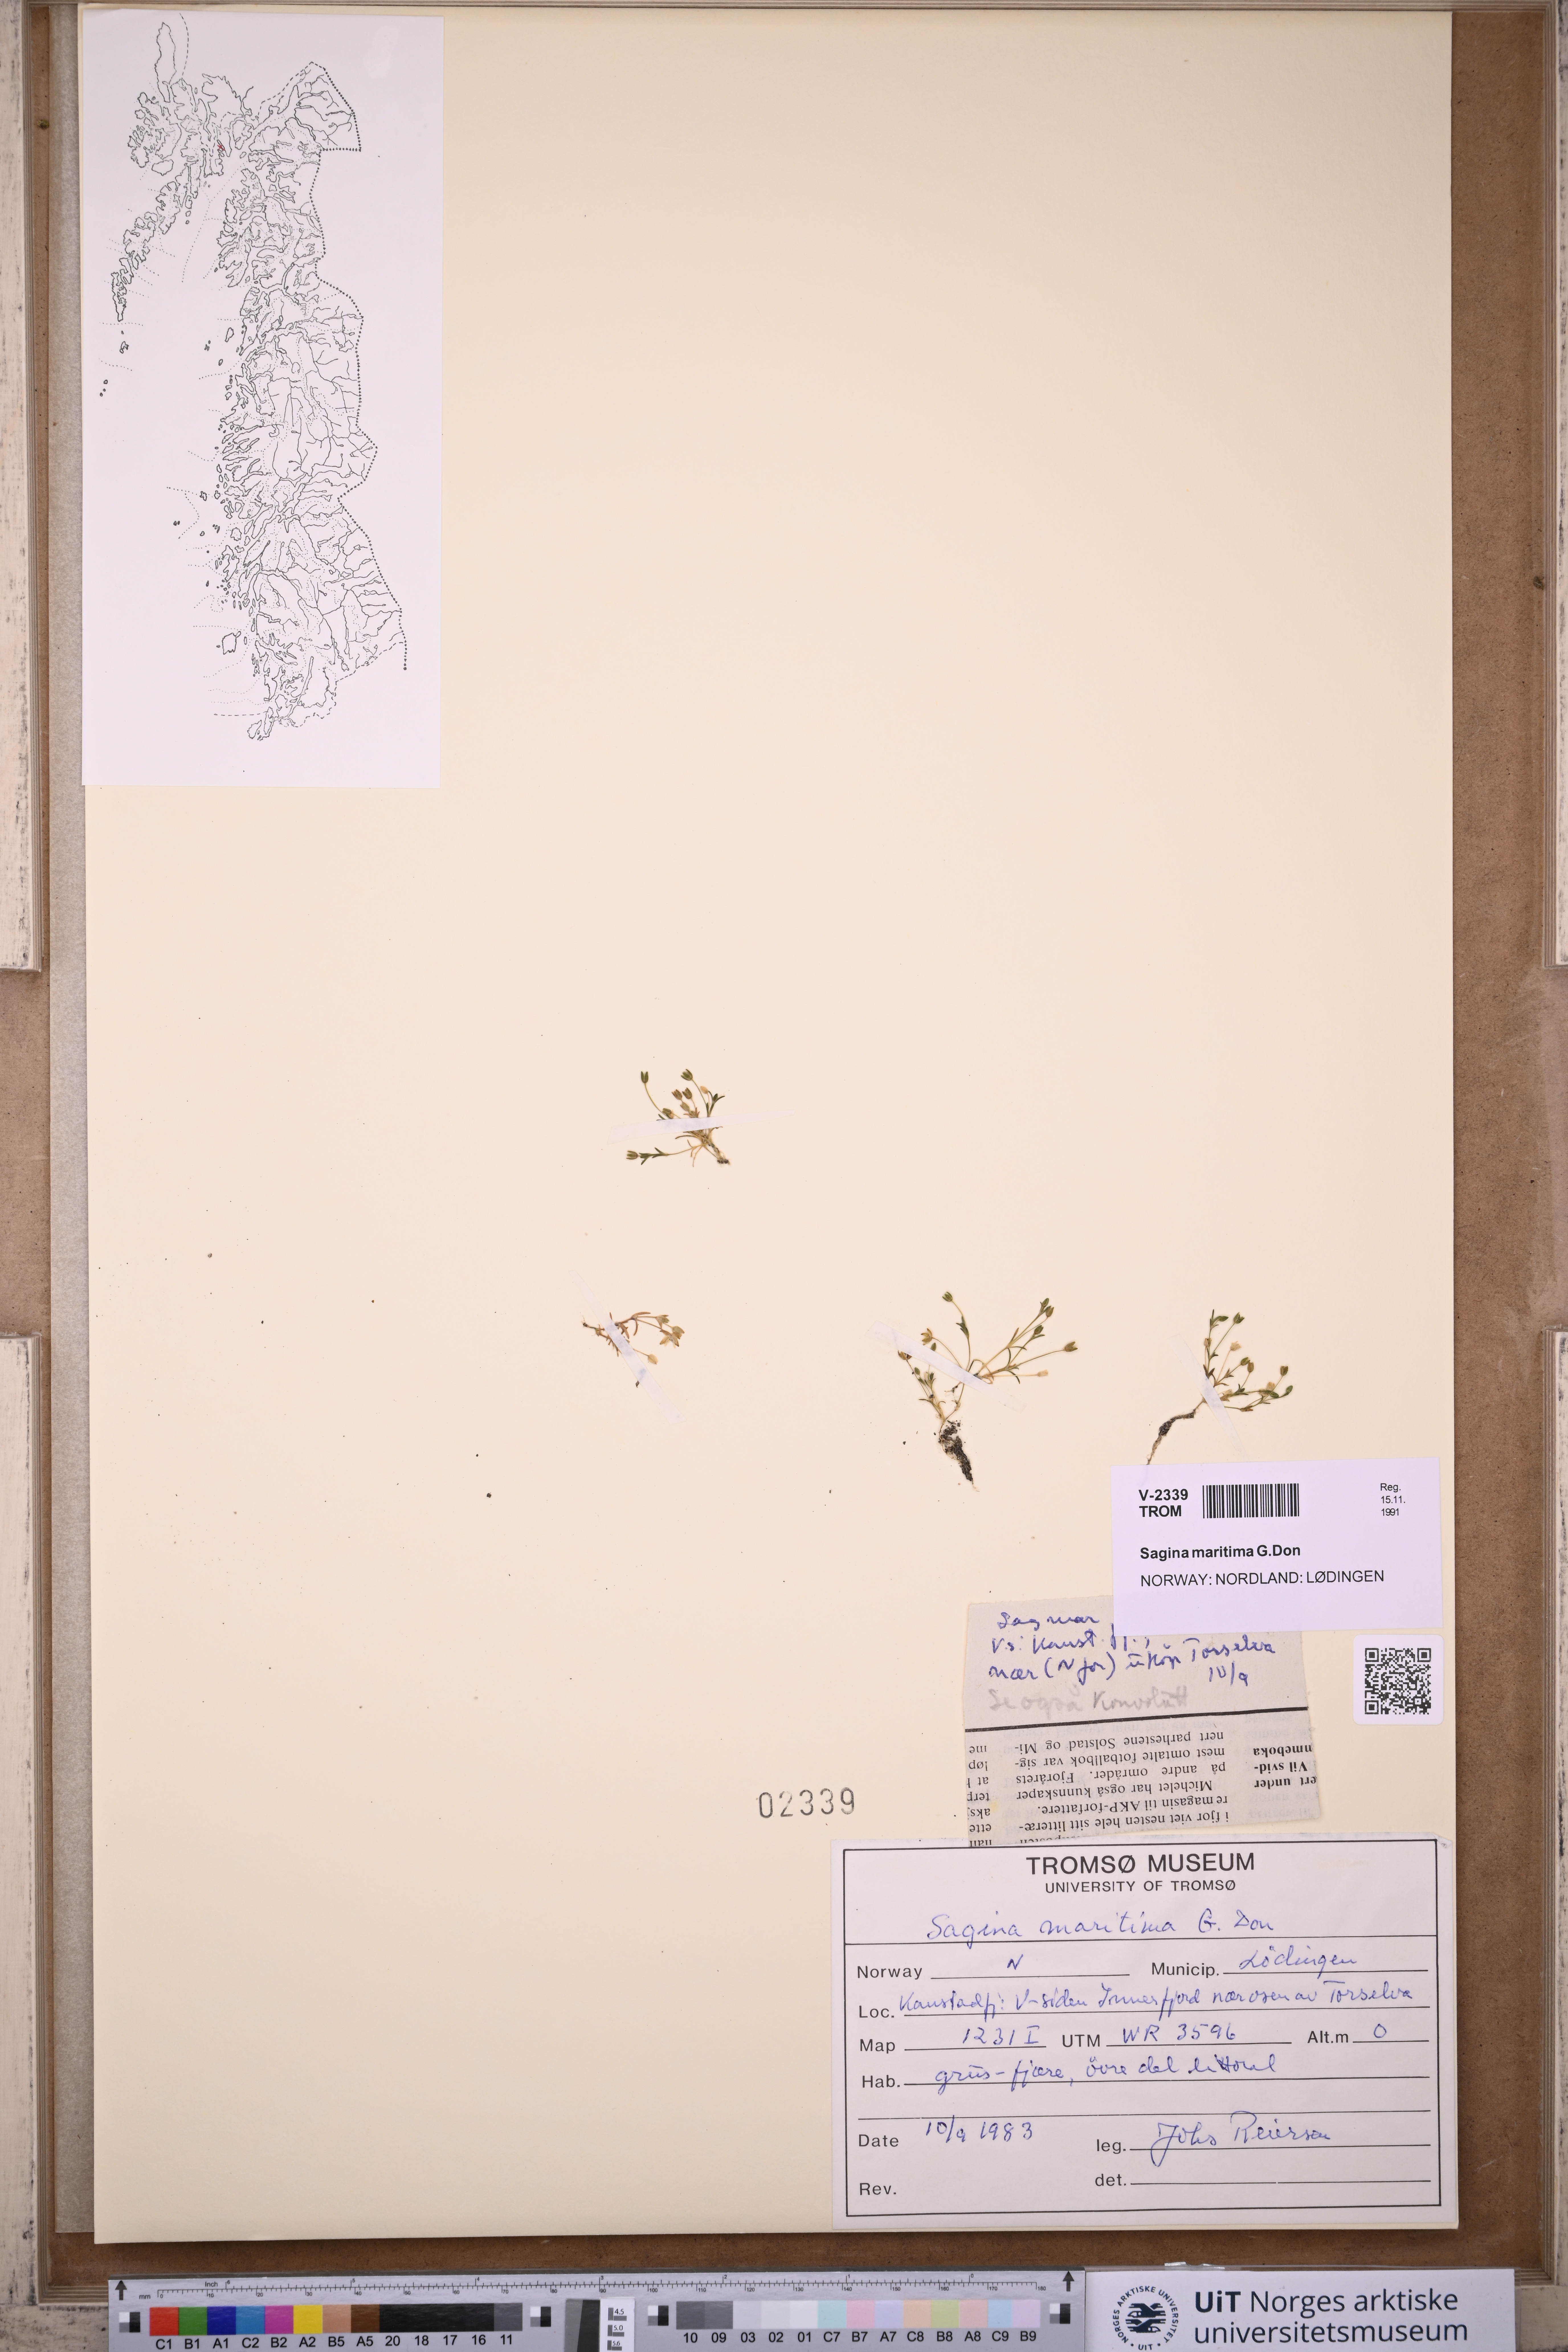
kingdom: Plantae
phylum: Tracheophyta
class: Magnoliopsida
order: Caryophyllales
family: Caryophyllaceae
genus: Sagina
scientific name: Sagina maritima
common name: Sea pearlwort
